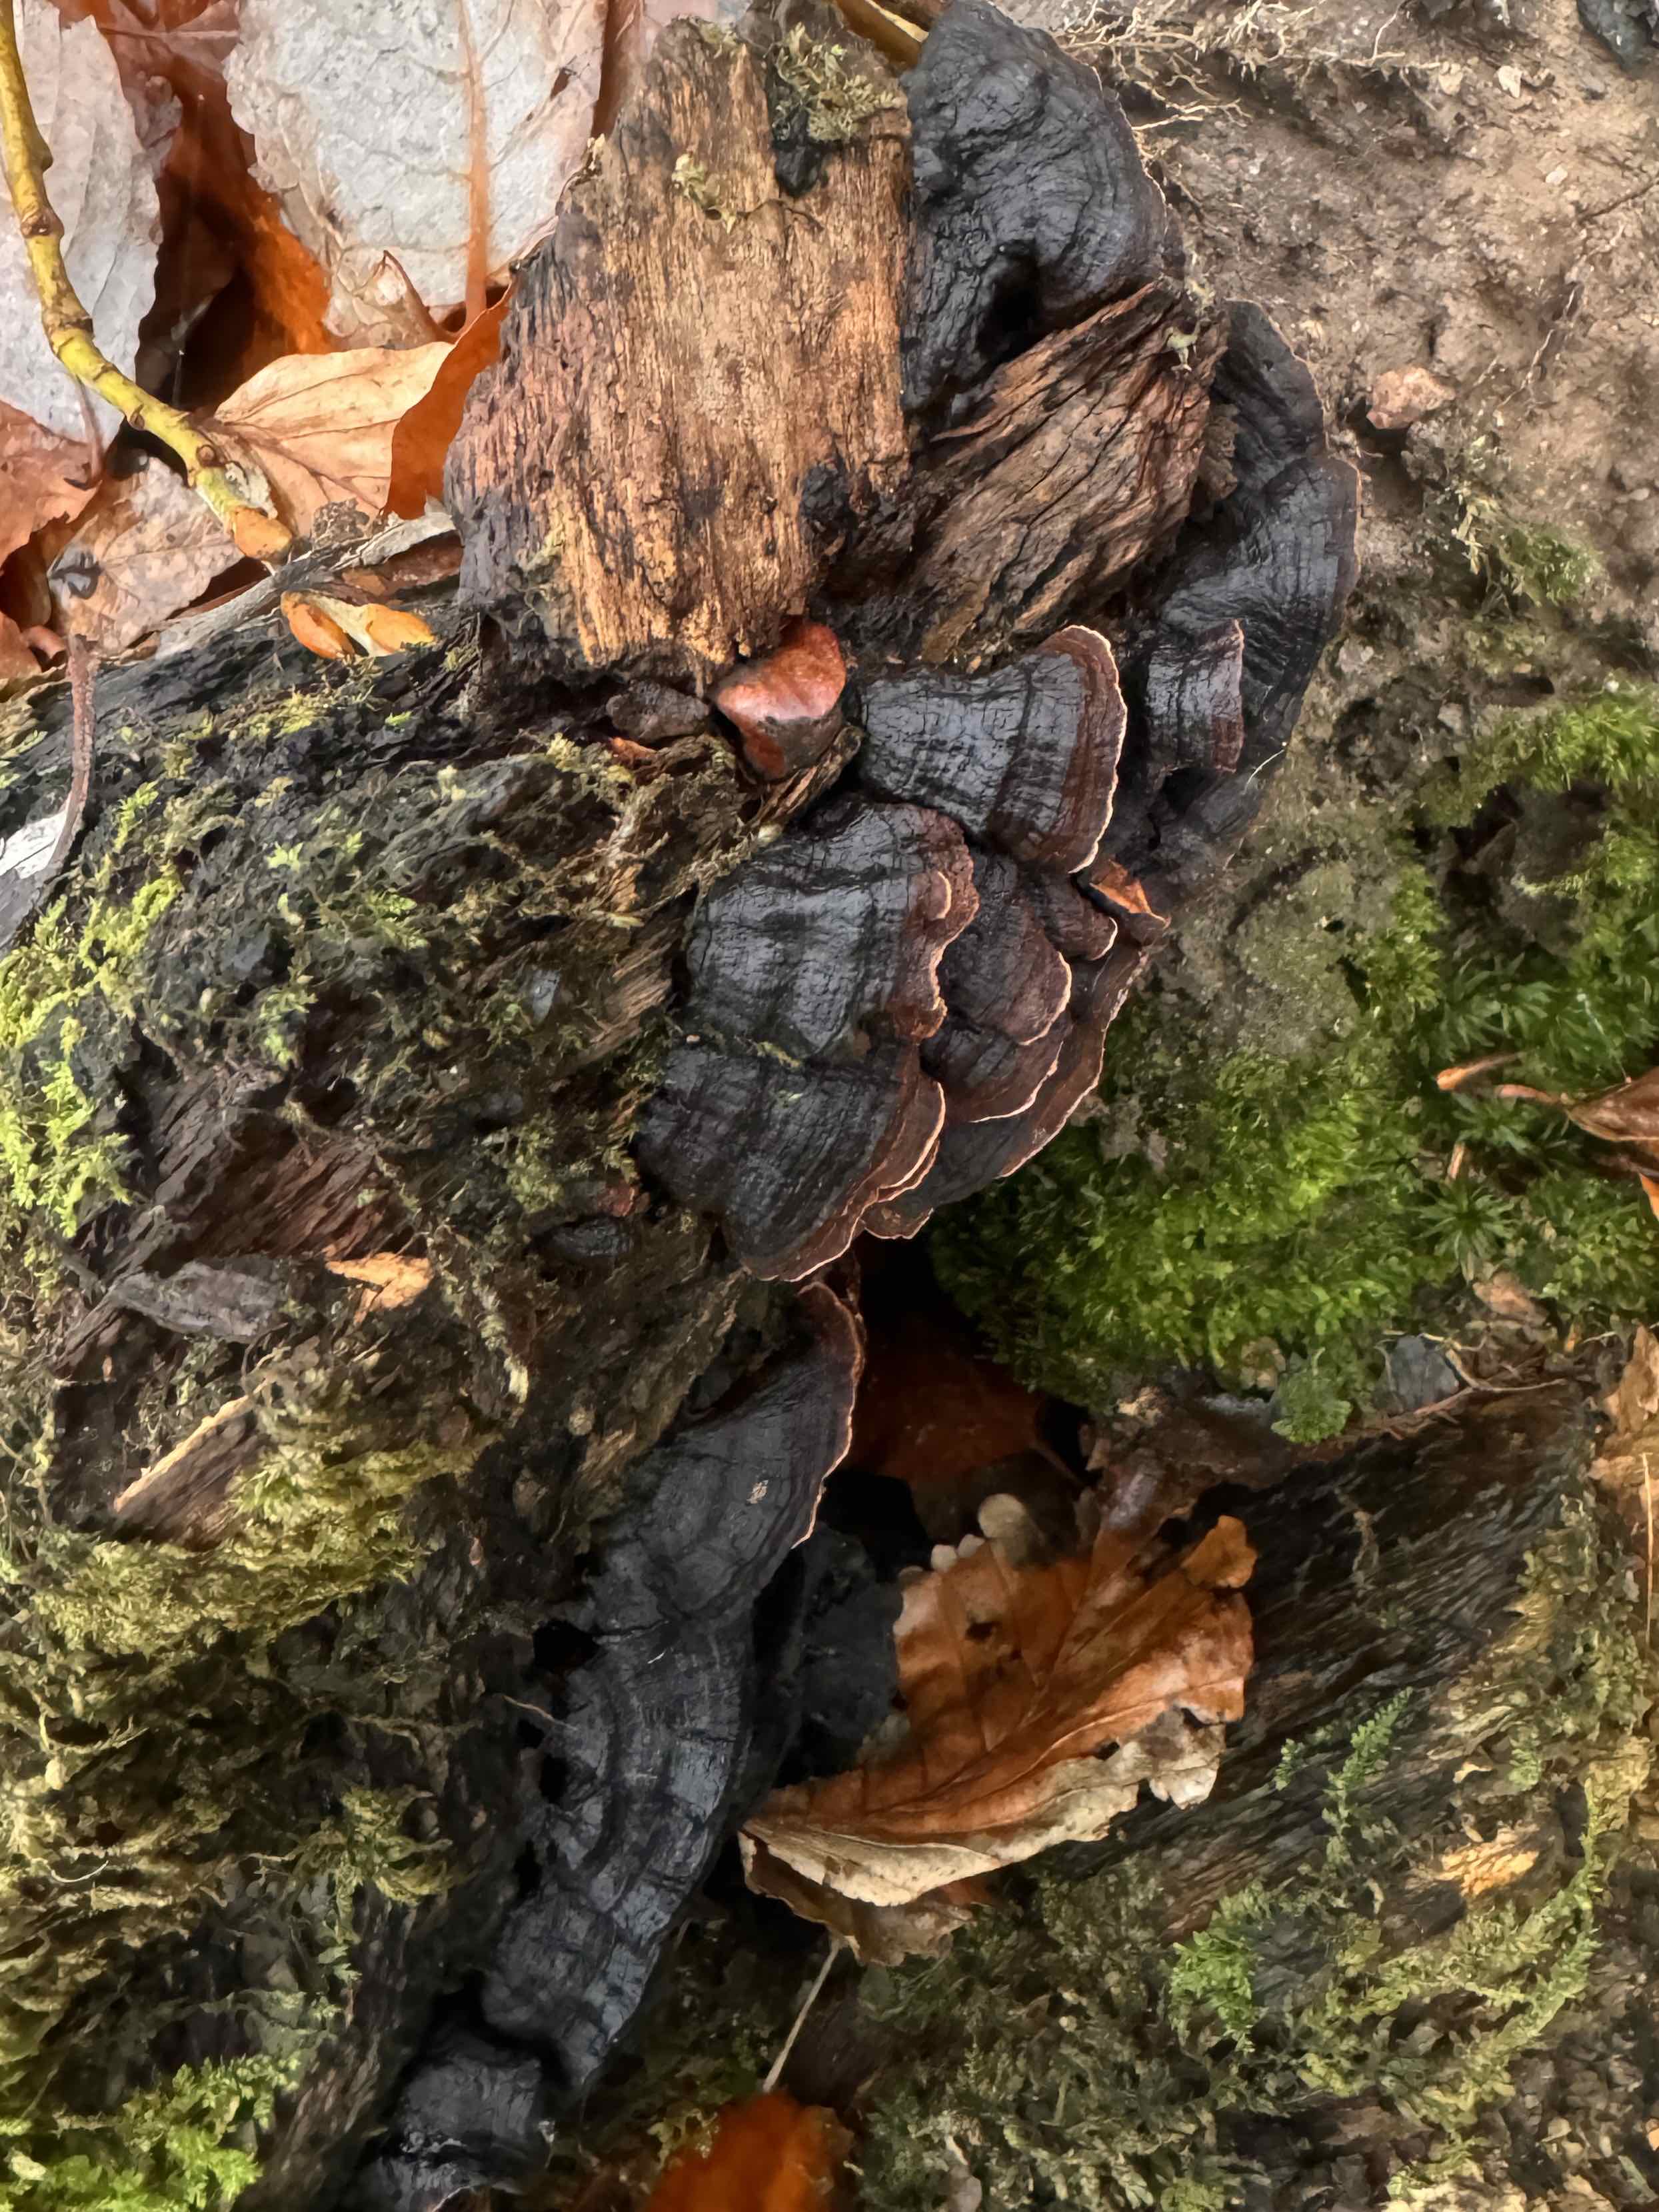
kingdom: Fungi
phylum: Basidiomycota
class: Agaricomycetes
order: Hymenochaetales
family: Hymenochaetaceae
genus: Hymenochaete
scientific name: Hymenochaete rubiginosa
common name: stiv ruslædersvamp
